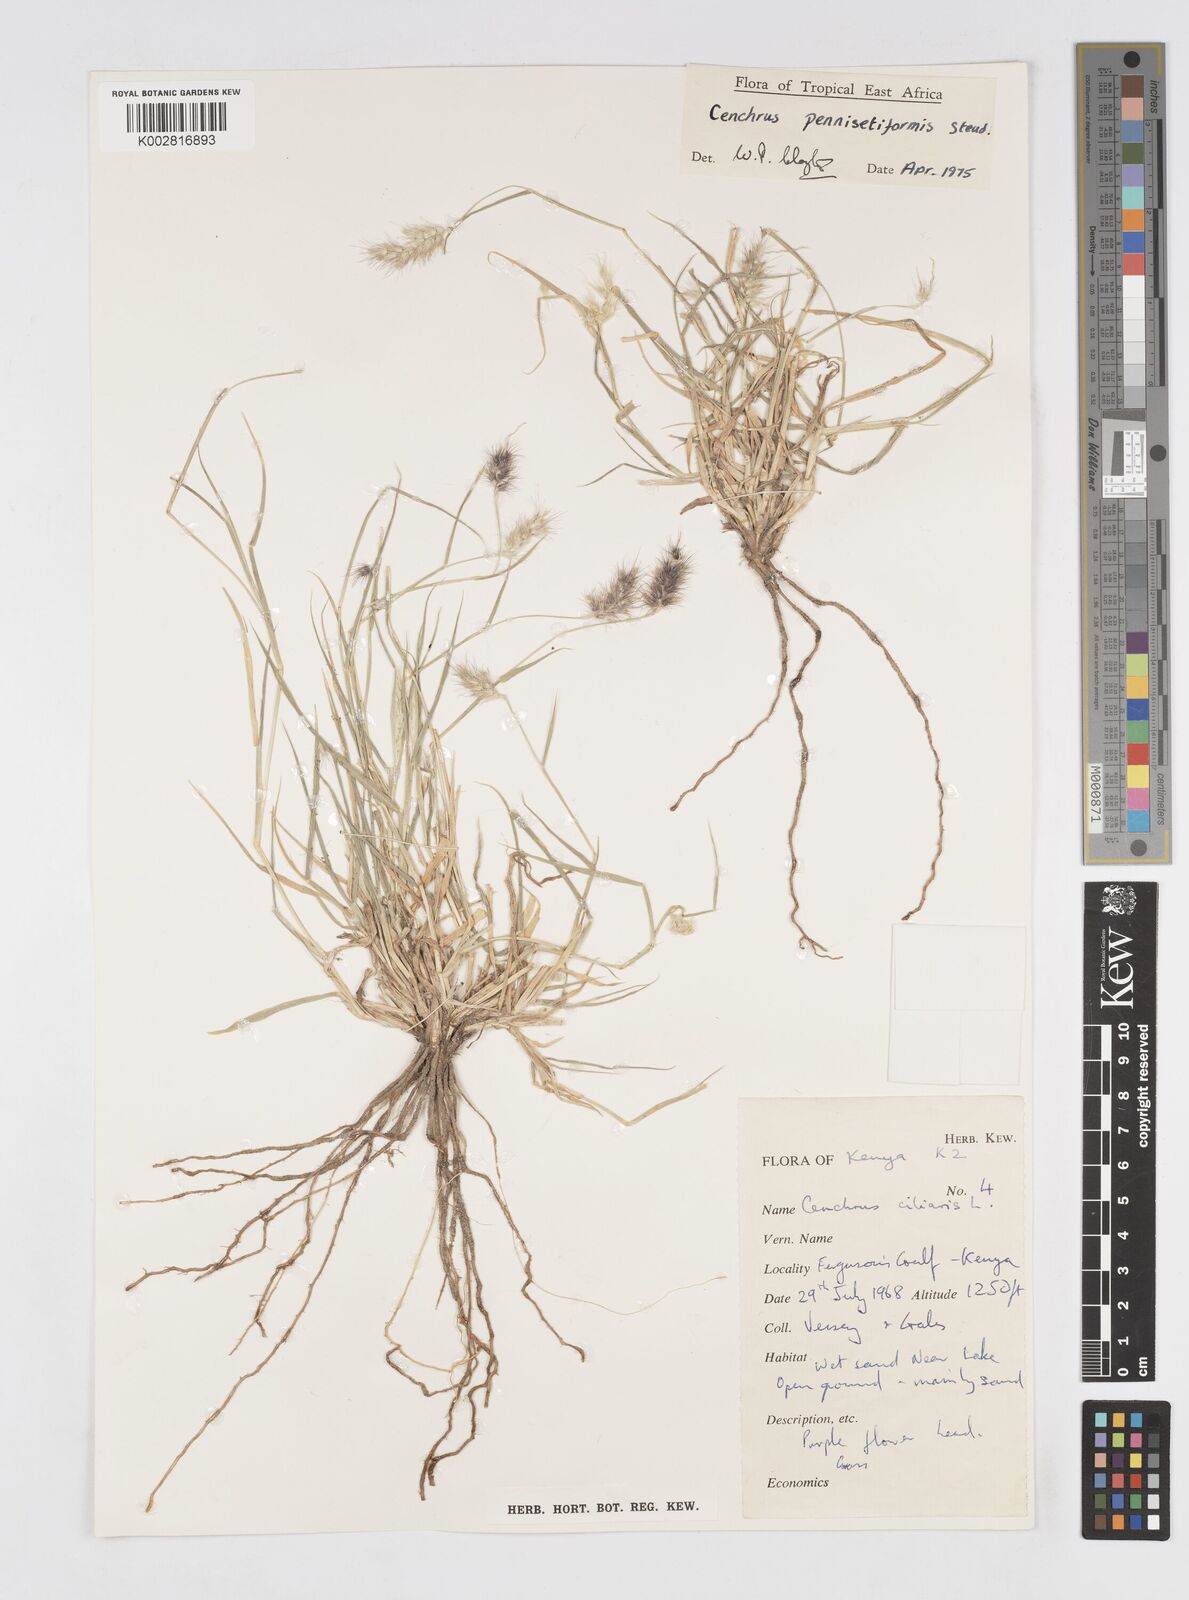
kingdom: Plantae
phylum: Tracheophyta
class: Liliopsida
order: Poales
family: Poaceae
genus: Cenchrus
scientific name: Cenchrus pennisetiformis
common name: Cloncurry
